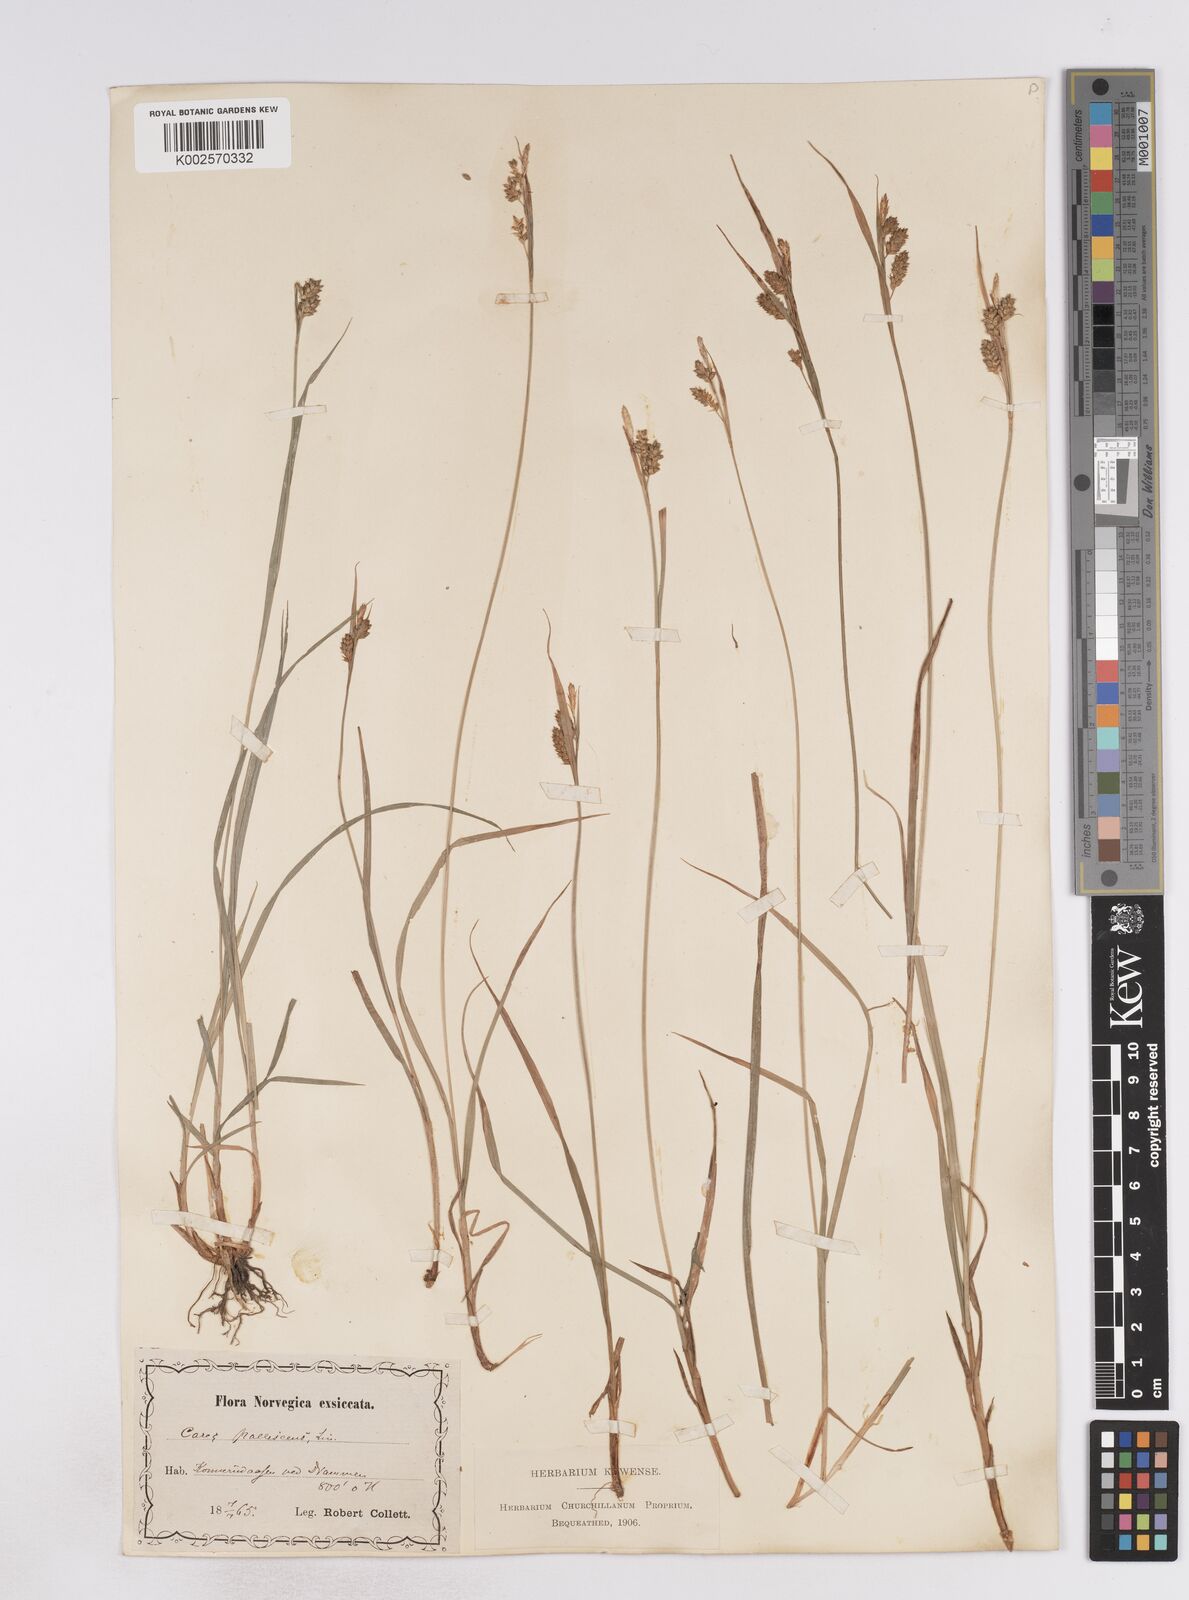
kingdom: Plantae
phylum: Tracheophyta
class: Liliopsida
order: Poales
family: Cyperaceae
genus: Carex
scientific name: Carex pallescens
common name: Pale sedge
